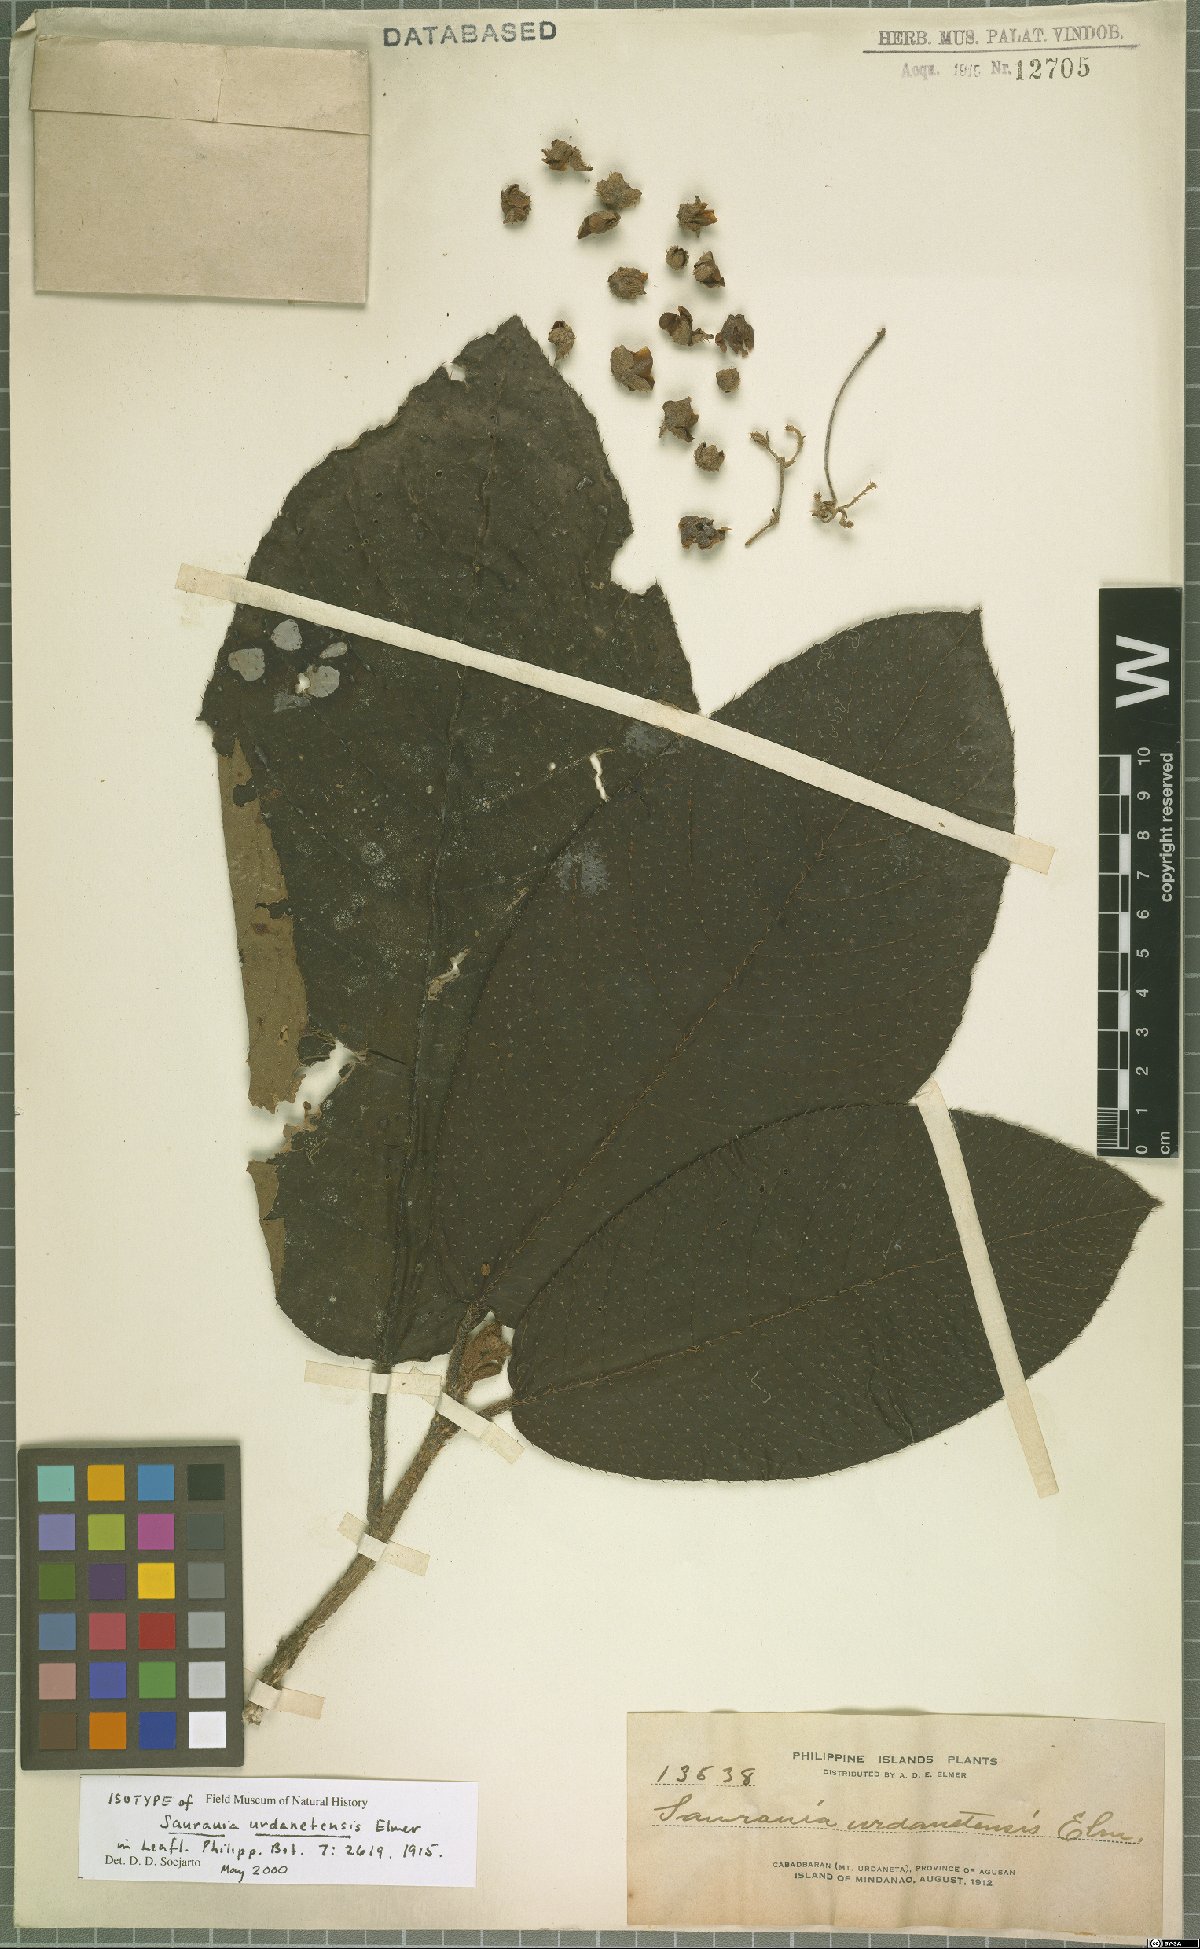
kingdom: Plantae
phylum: Tracheophyta
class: Magnoliopsida
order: Ericales
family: Actinidiaceae
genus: Saurauia
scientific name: Saurauia urdanetensis
